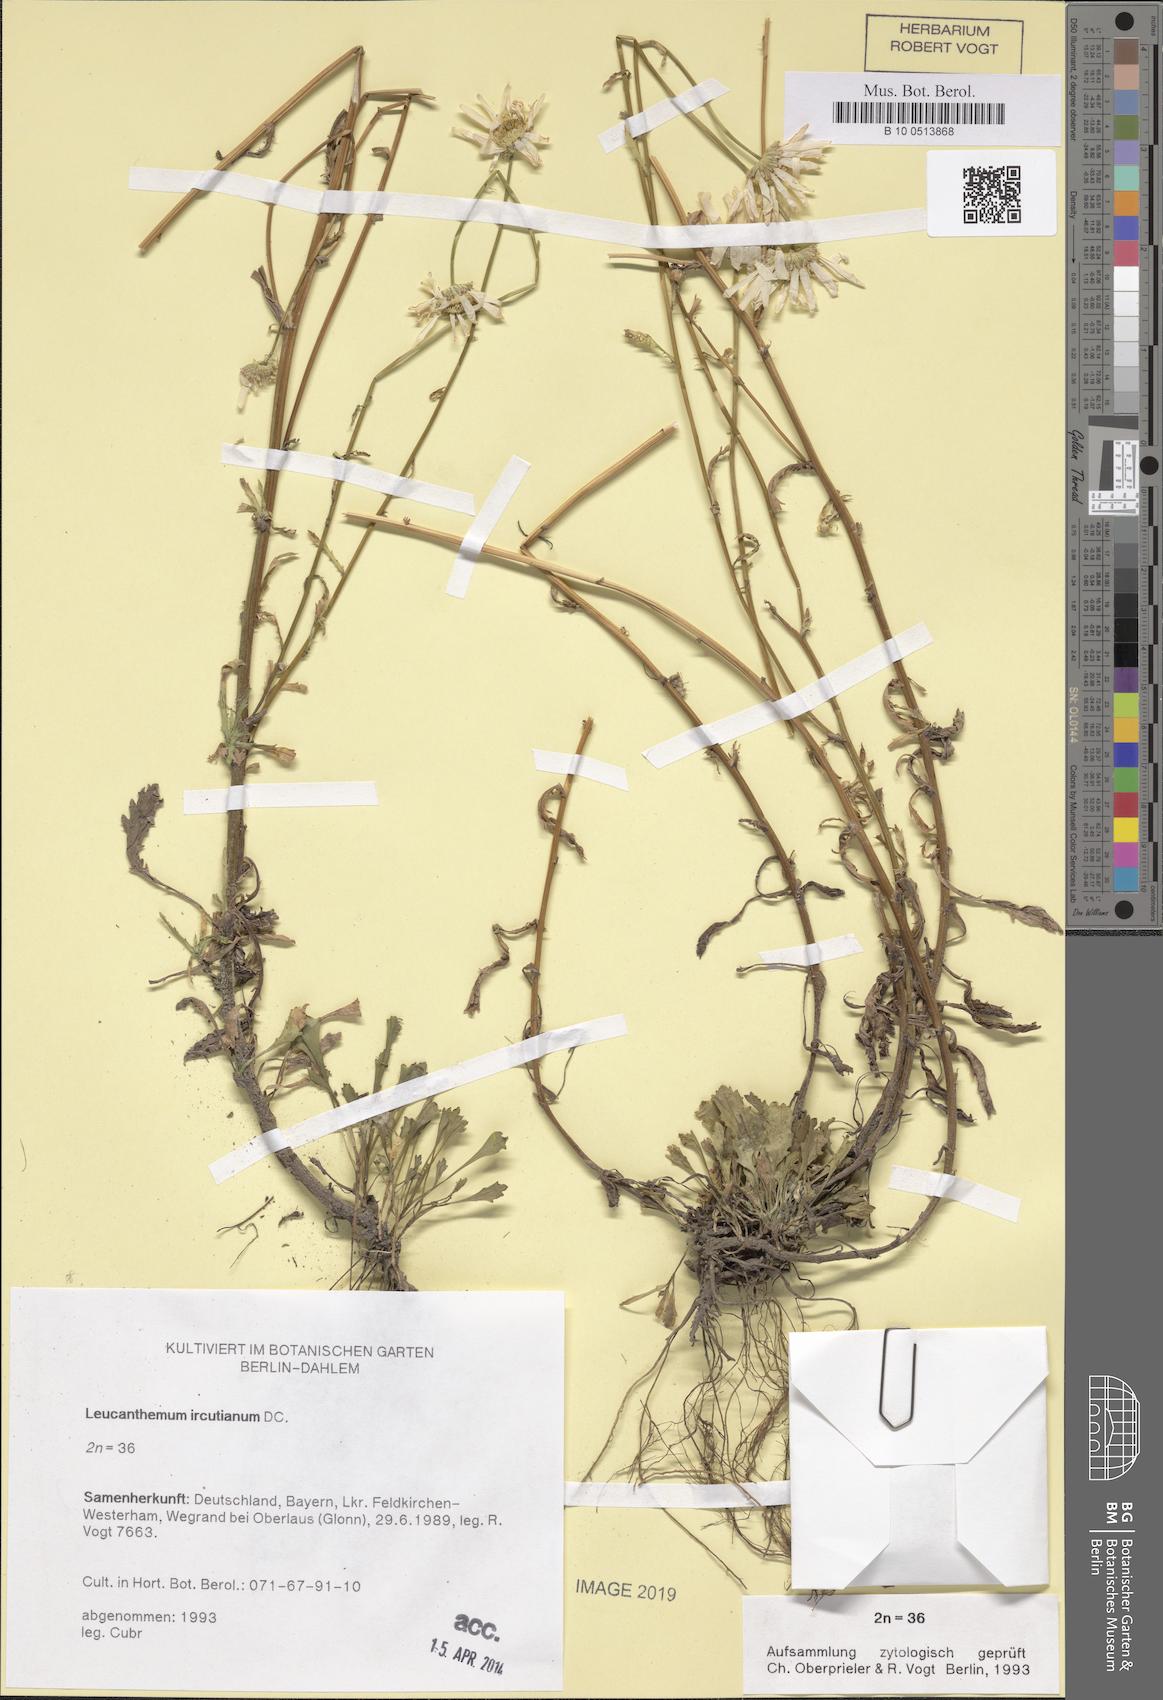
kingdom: Plantae
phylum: Tracheophyta
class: Magnoliopsida
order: Asterales
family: Asteraceae
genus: Leucanthemum
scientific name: Leucanthemum ircutianum
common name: Daisy
